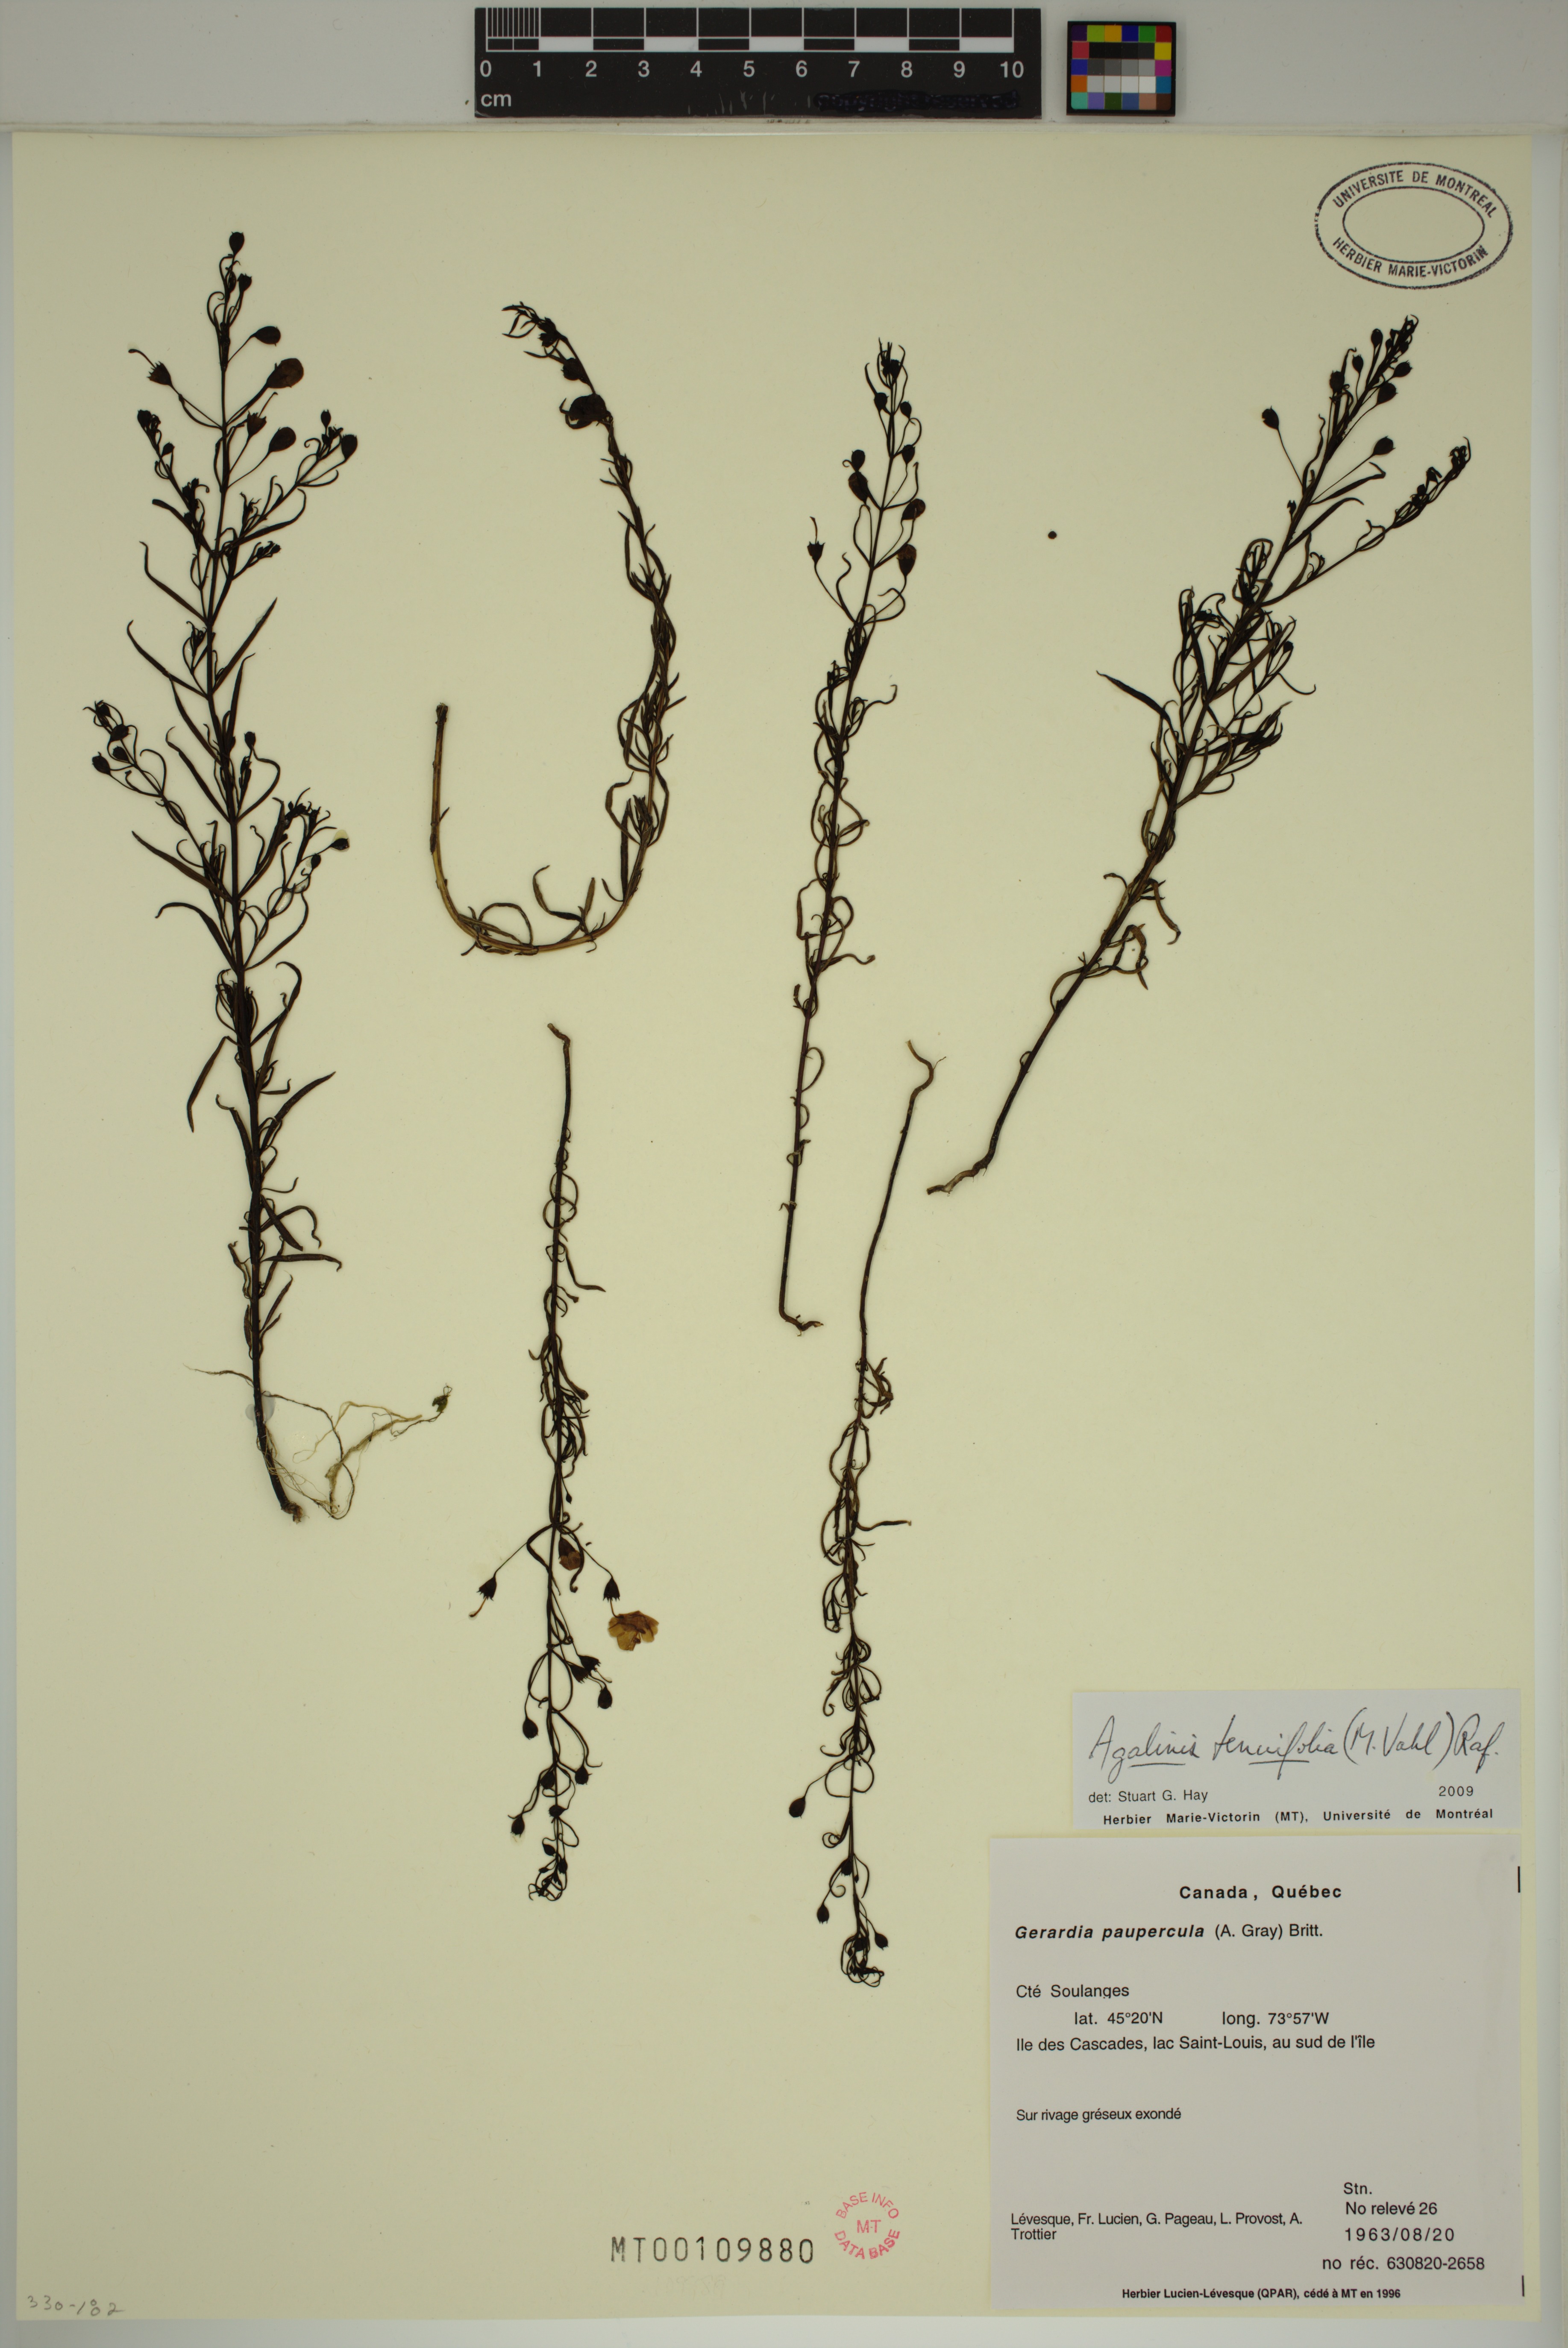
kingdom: Plantae
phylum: Tracheophyta
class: Magnoliopsida
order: Lamiales
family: Orobanchaceae
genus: Agalinis
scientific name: Agalinis tenuifolia
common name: Slender agalinis
